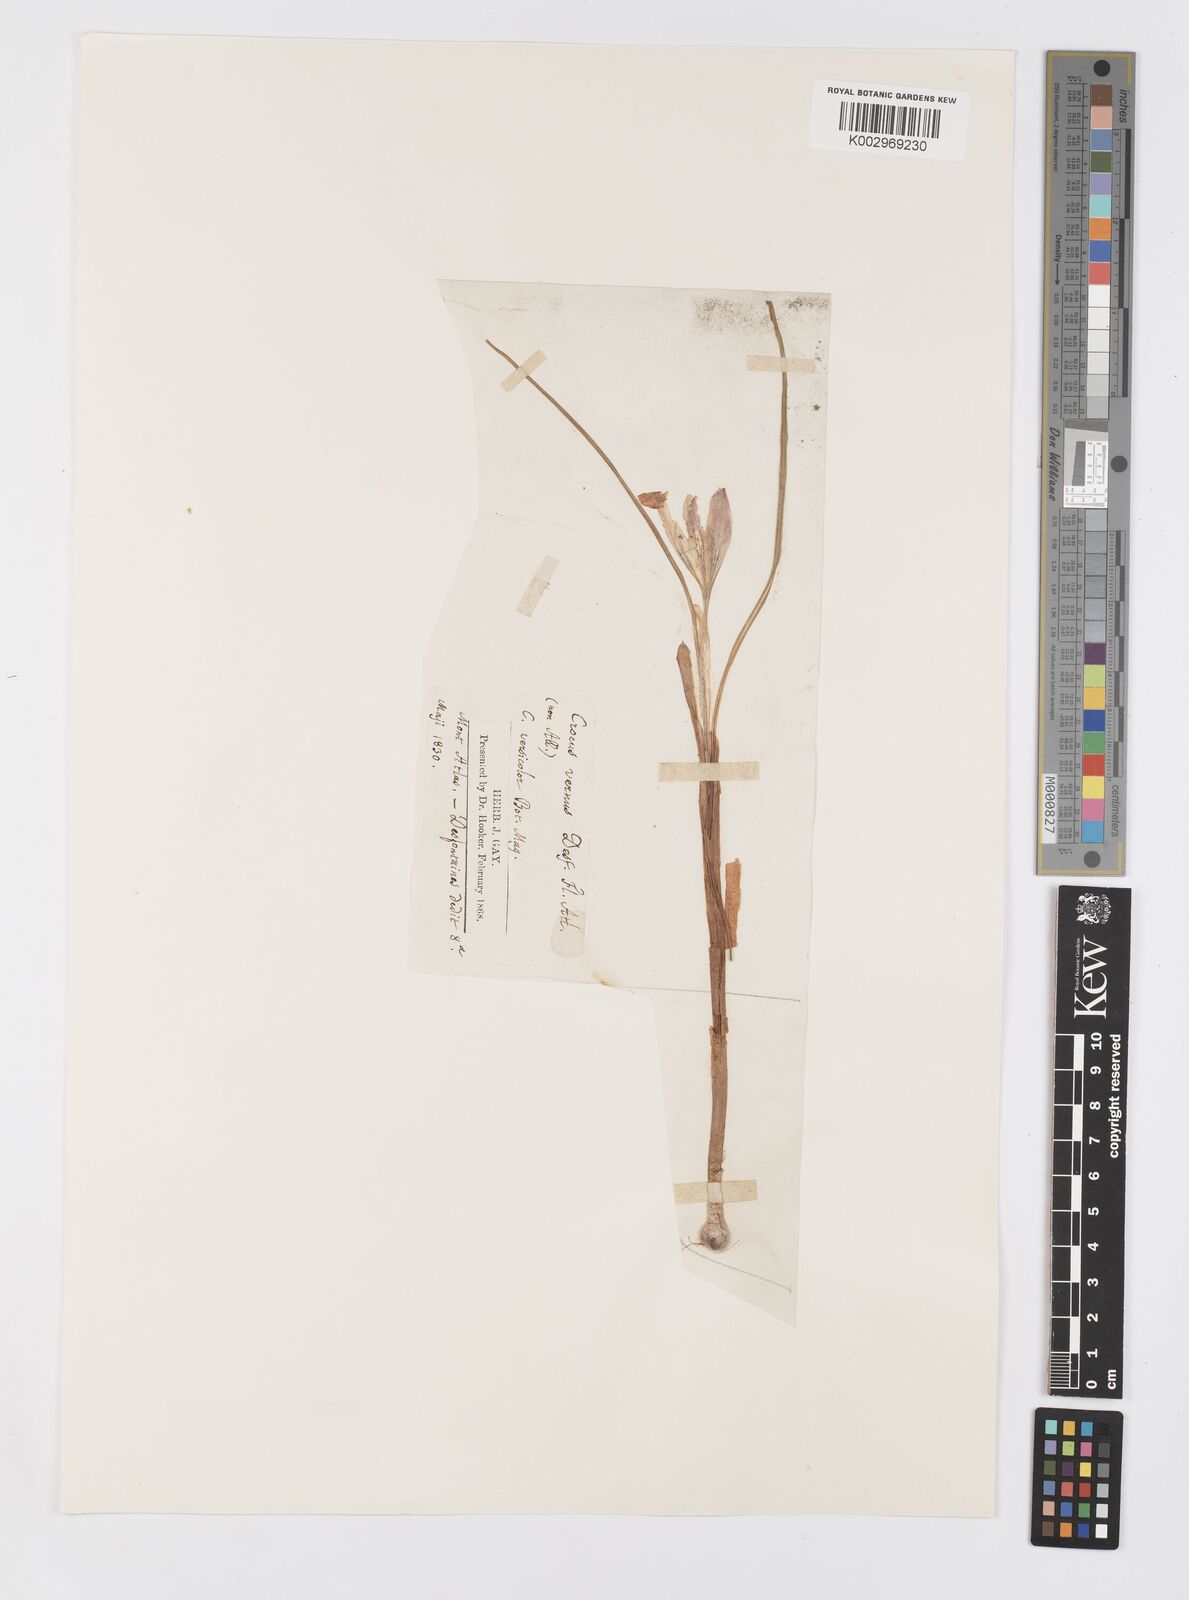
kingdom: Plantae
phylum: Tracheophyta
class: Liliopsida
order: Asparagales
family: Iridaceae
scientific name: Iridaceae
